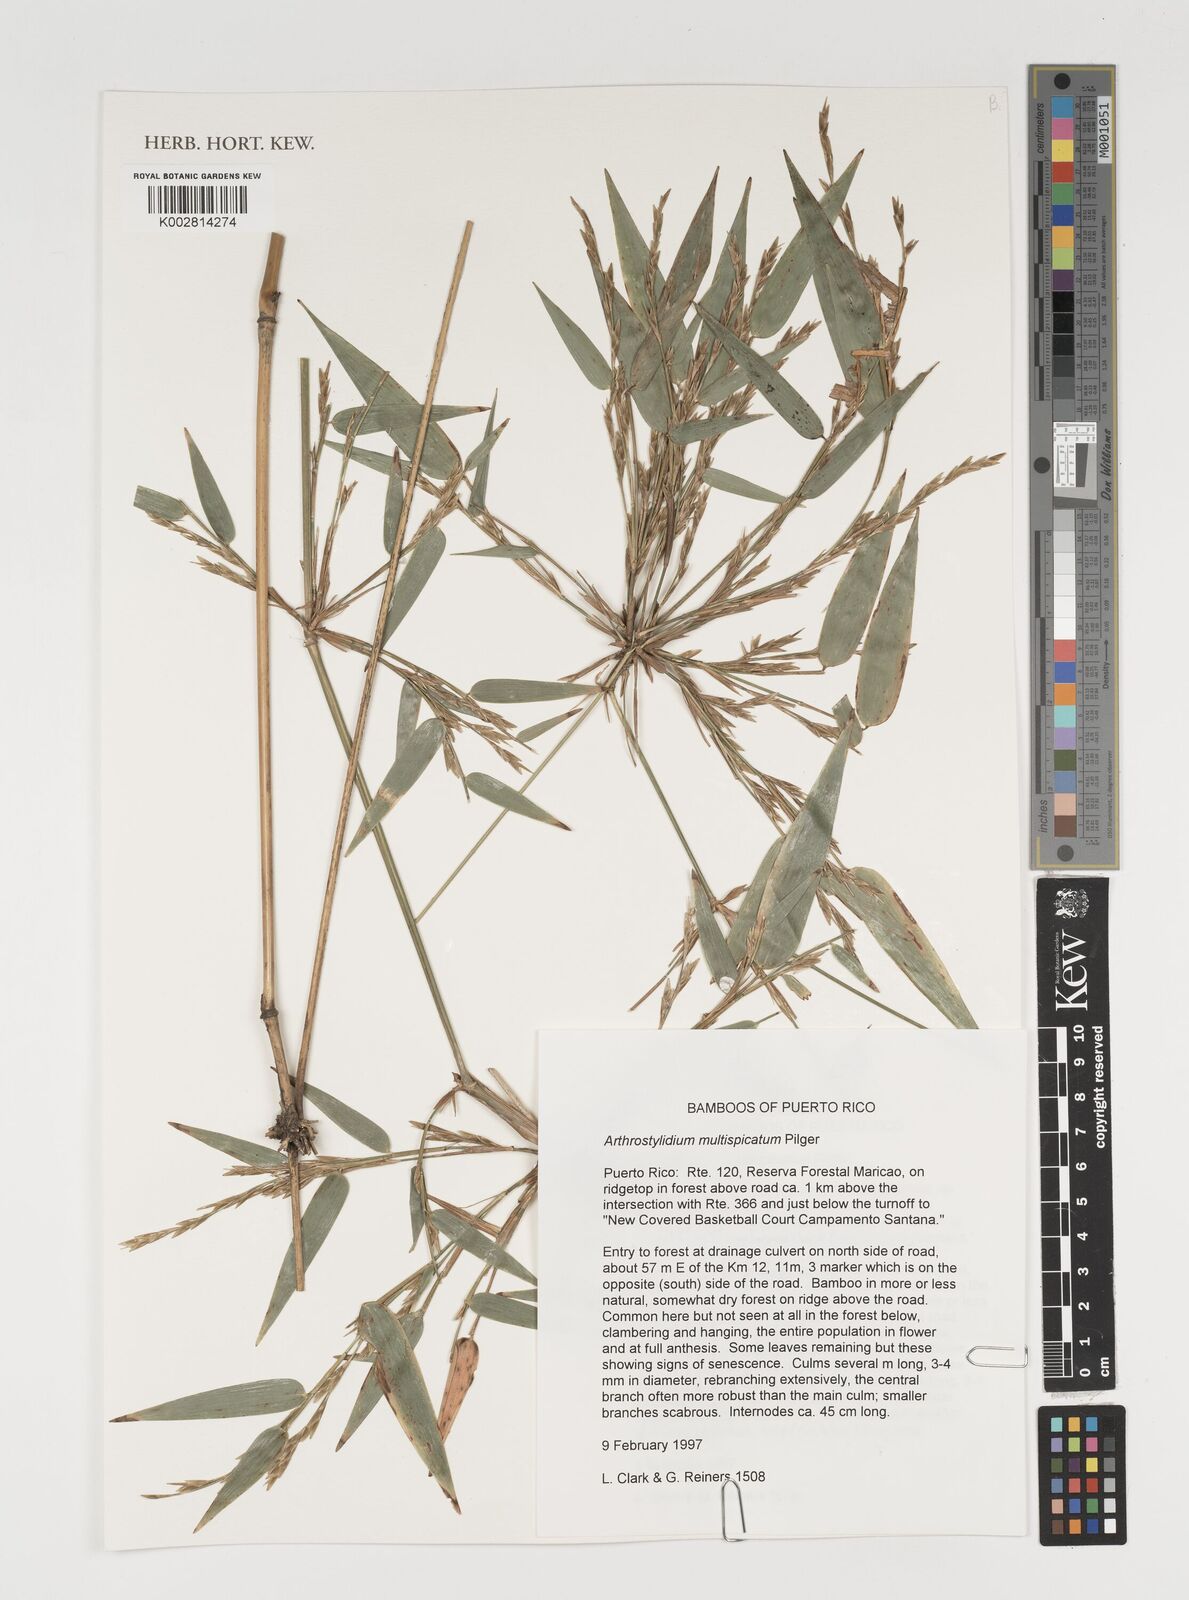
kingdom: Plantae
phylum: Tracheophyta
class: Liliopsida
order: Poales
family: Poaceae
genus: Arthrostylidium
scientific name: Arthrostylidium multispicatum
